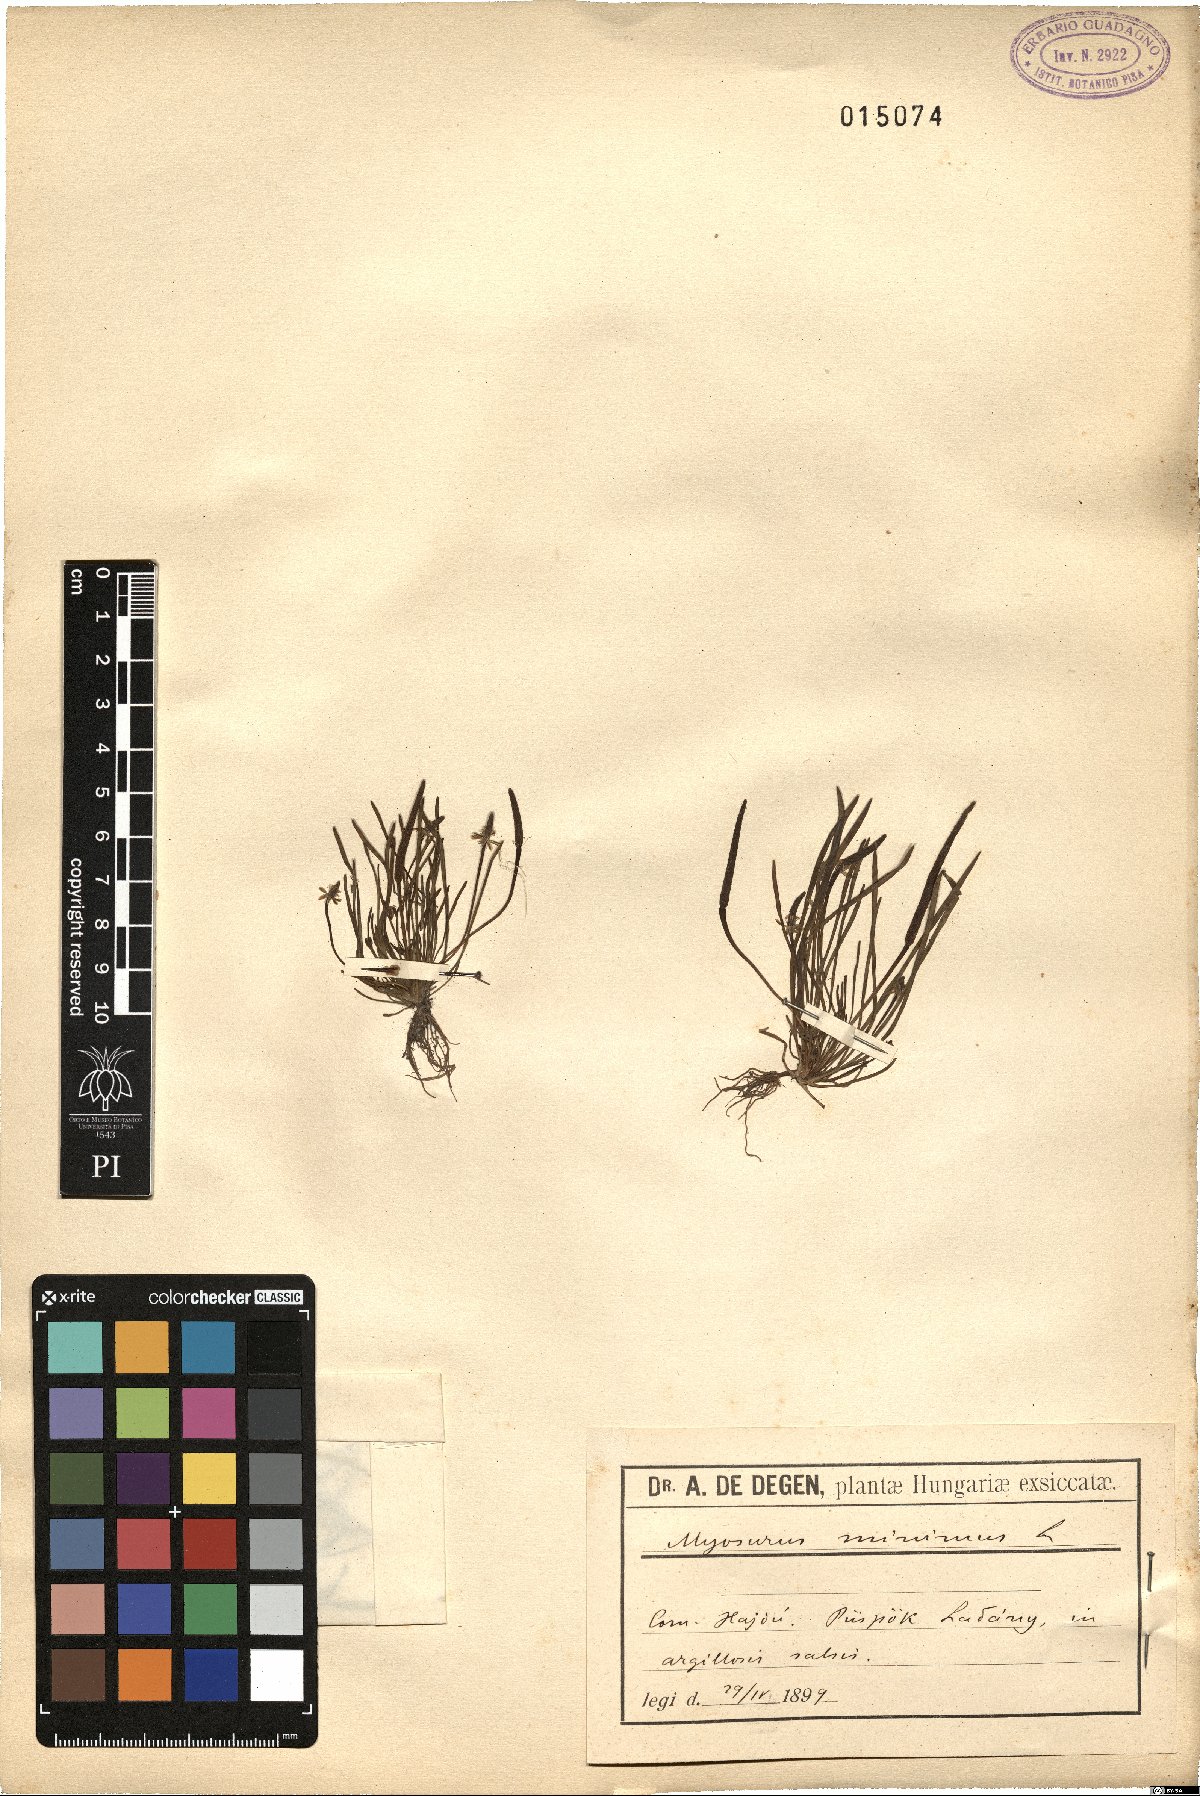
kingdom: Plantae
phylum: Tracheophyta
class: Magnoliopsida
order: Ranunculales
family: Ranunculaceae
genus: Myosurus
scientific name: Myosurus minimus
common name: Mousetail
